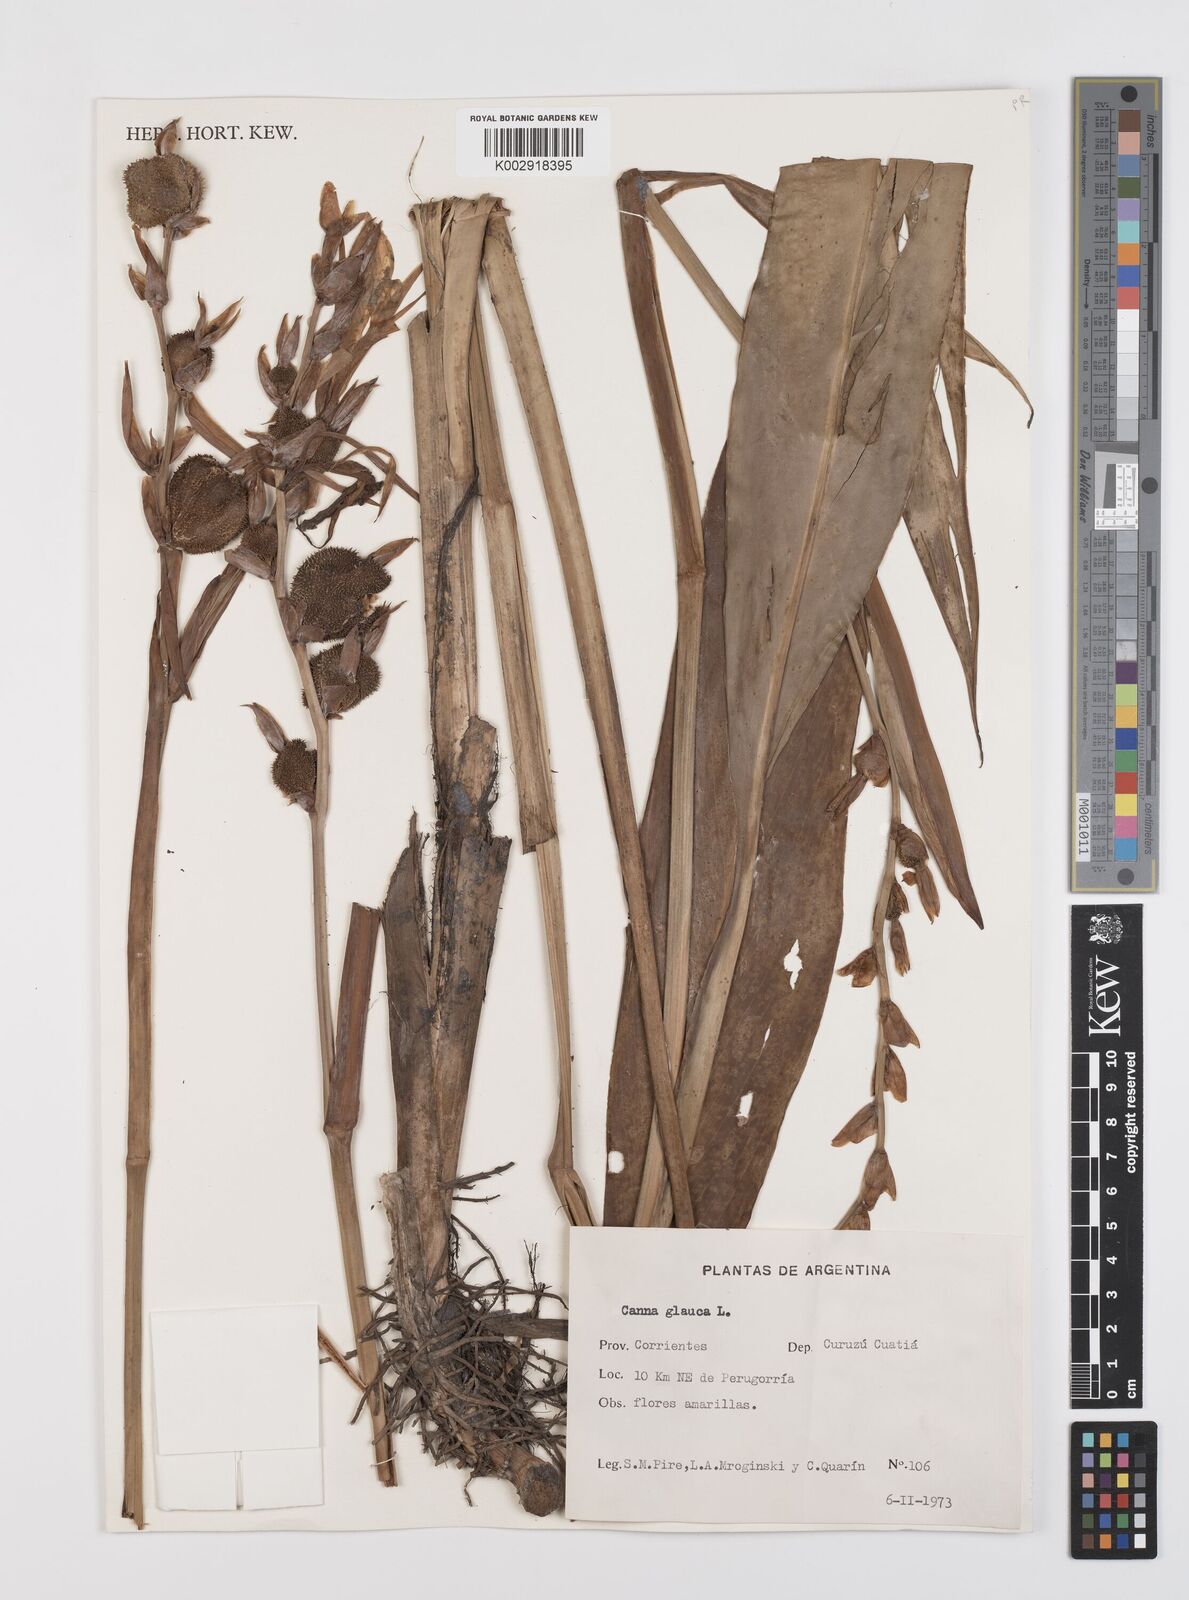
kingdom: Plantae
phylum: Tracheophyta
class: Liliopsida
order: Zingiberales
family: Cannaceae
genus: Canna
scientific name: Canna glauca
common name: Louisiana canna
